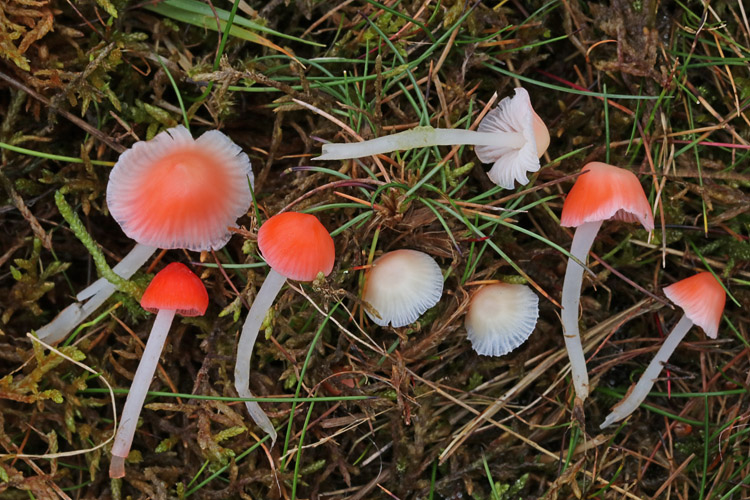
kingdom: Fungi
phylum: Basidiomycota
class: Agaricomycetes
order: Agaricales
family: Mycenaceae
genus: Atheniella
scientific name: Atheniella adonis
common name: rønnerød huesvamp
